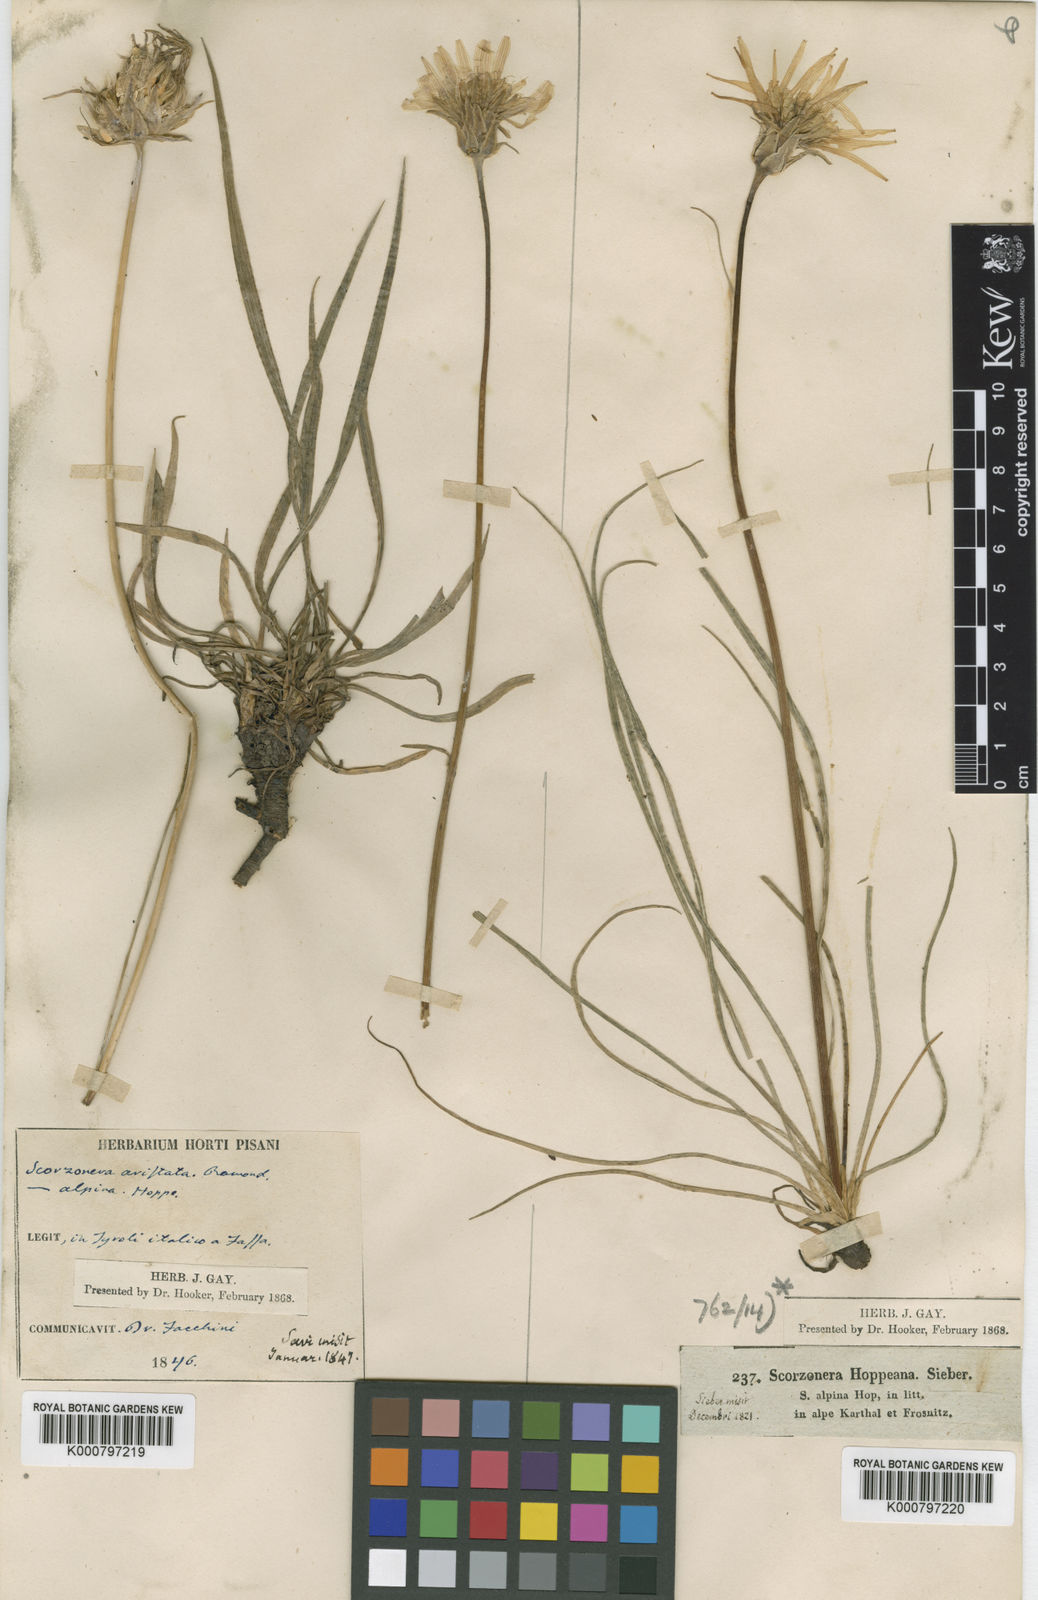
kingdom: Plantae
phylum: Tracheophyta
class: Magnoliopsida
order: Asterales
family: Asteraceae
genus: Scorzonera
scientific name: Scorzonera aristata
